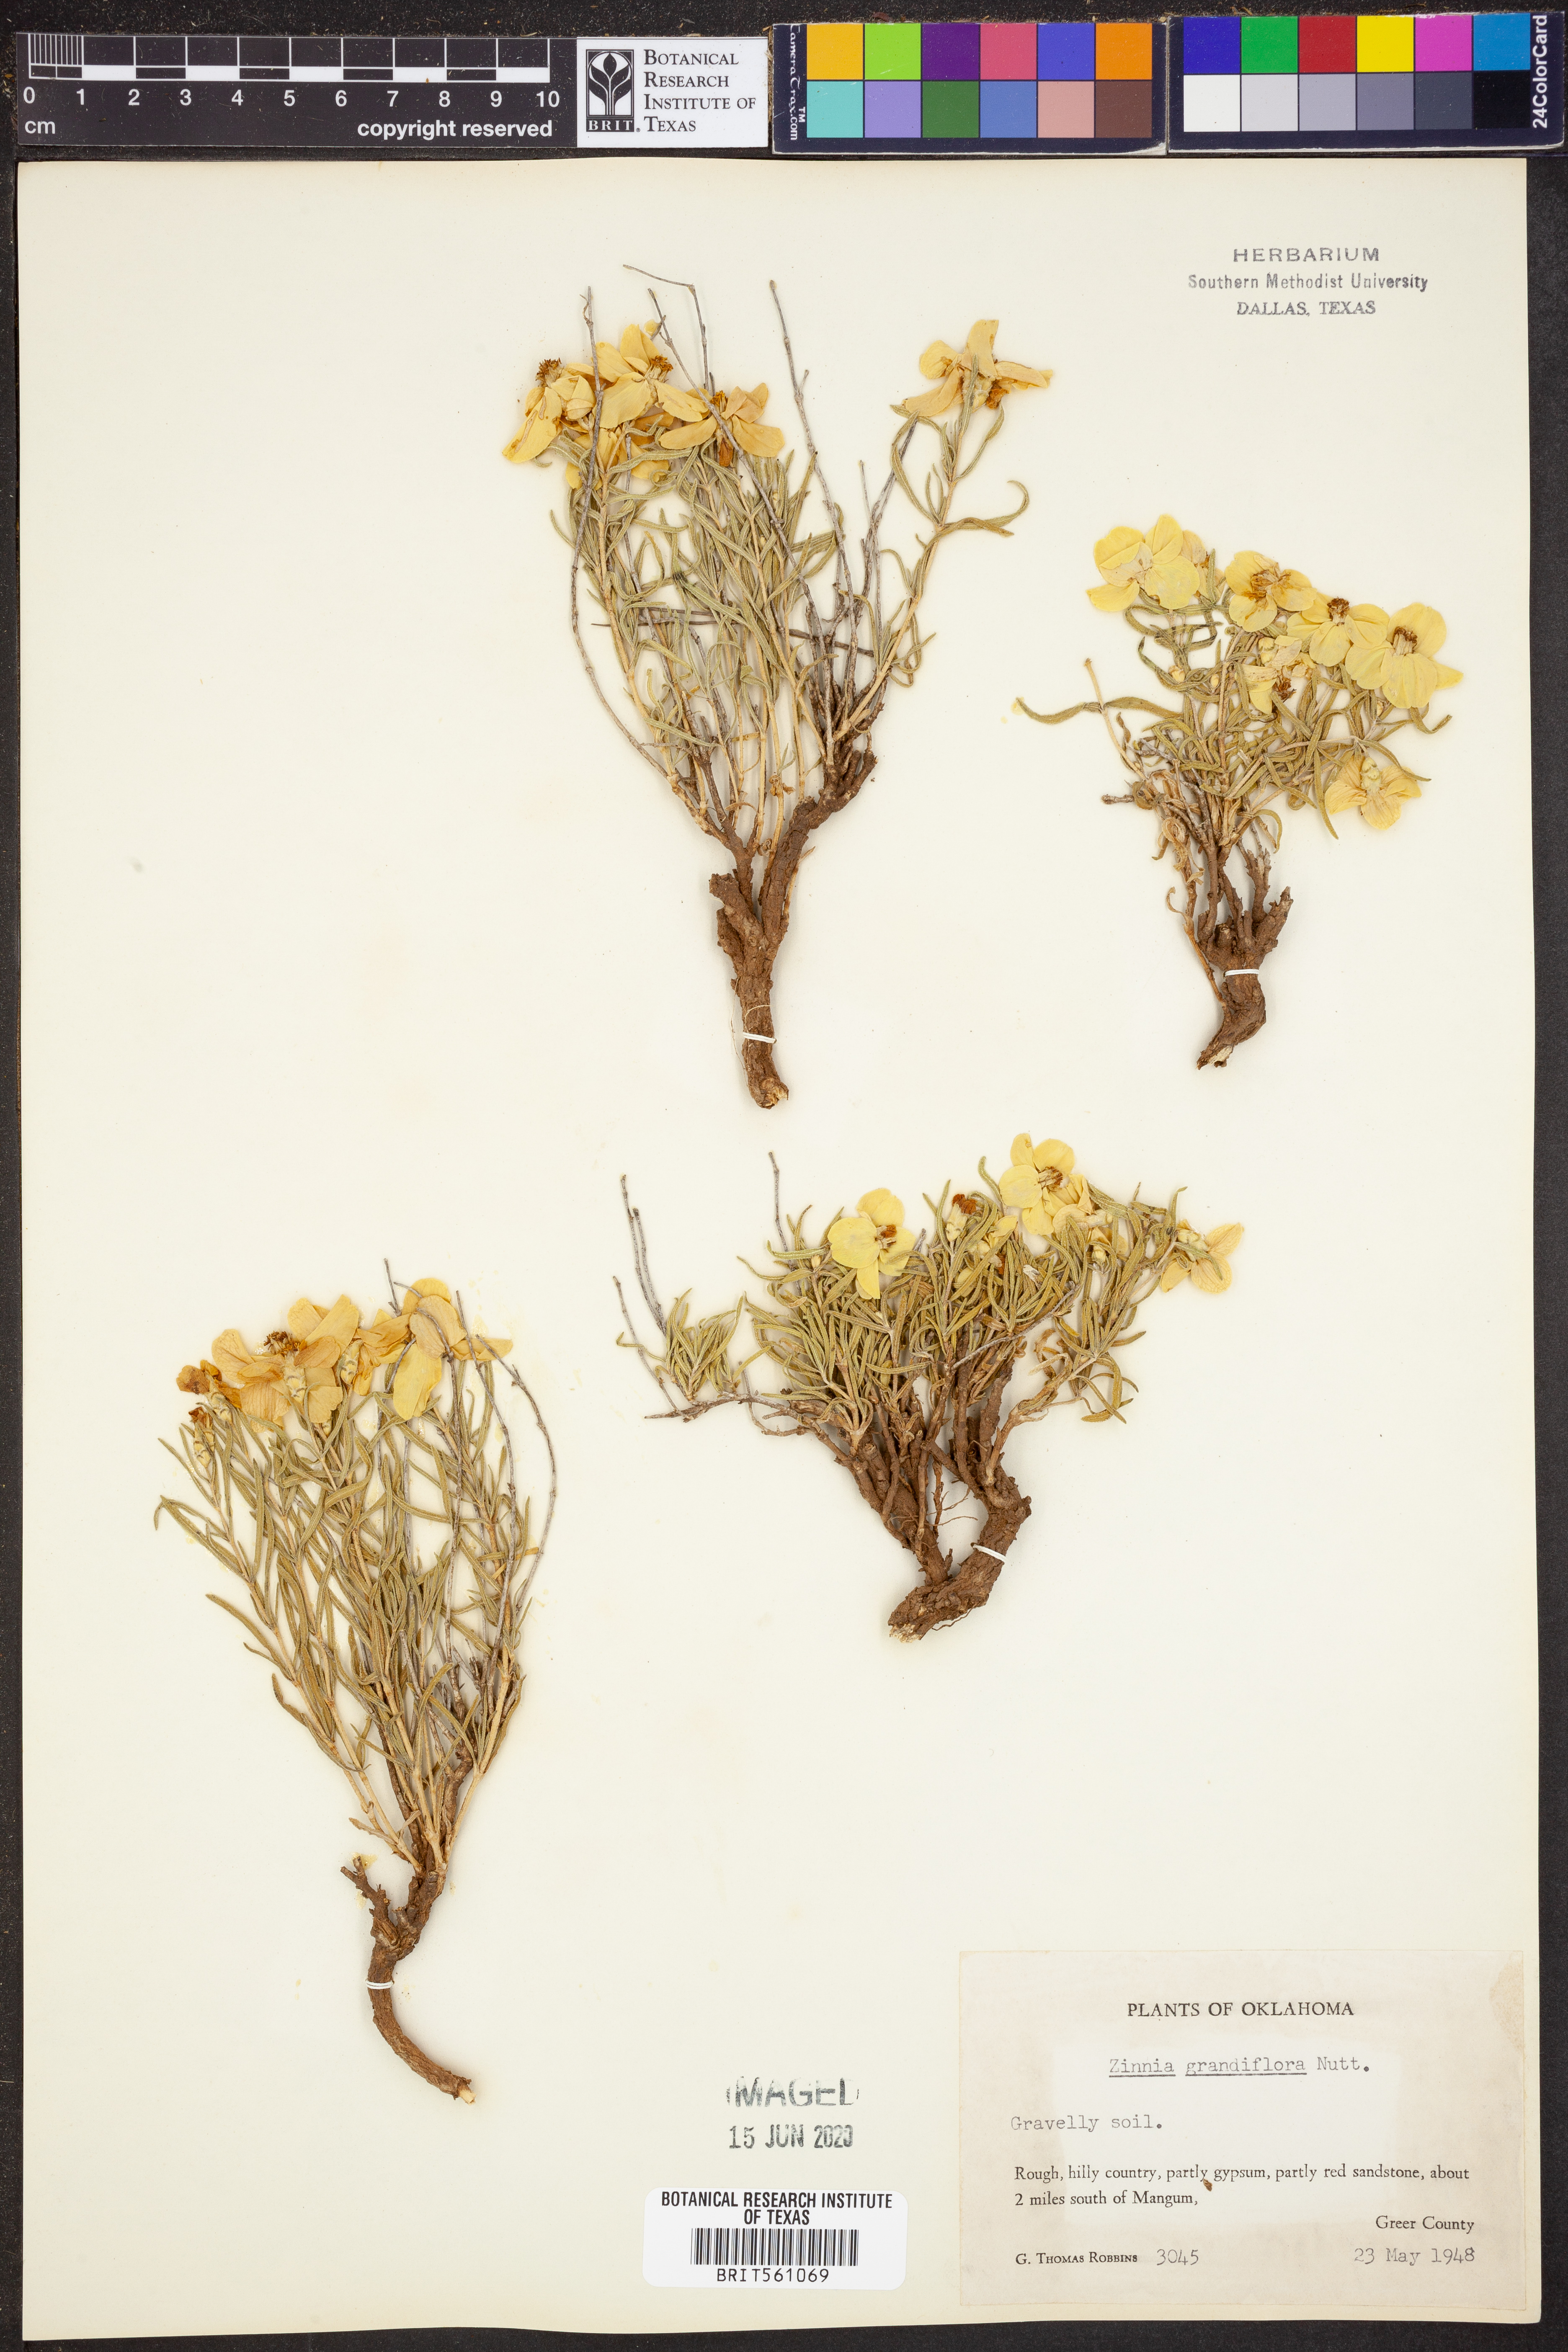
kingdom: Plantae
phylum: Tracheophyta
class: Magnoliopsida
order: Asterales
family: Asteraceae
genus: Zinnia
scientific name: Zinnia grandiflora
